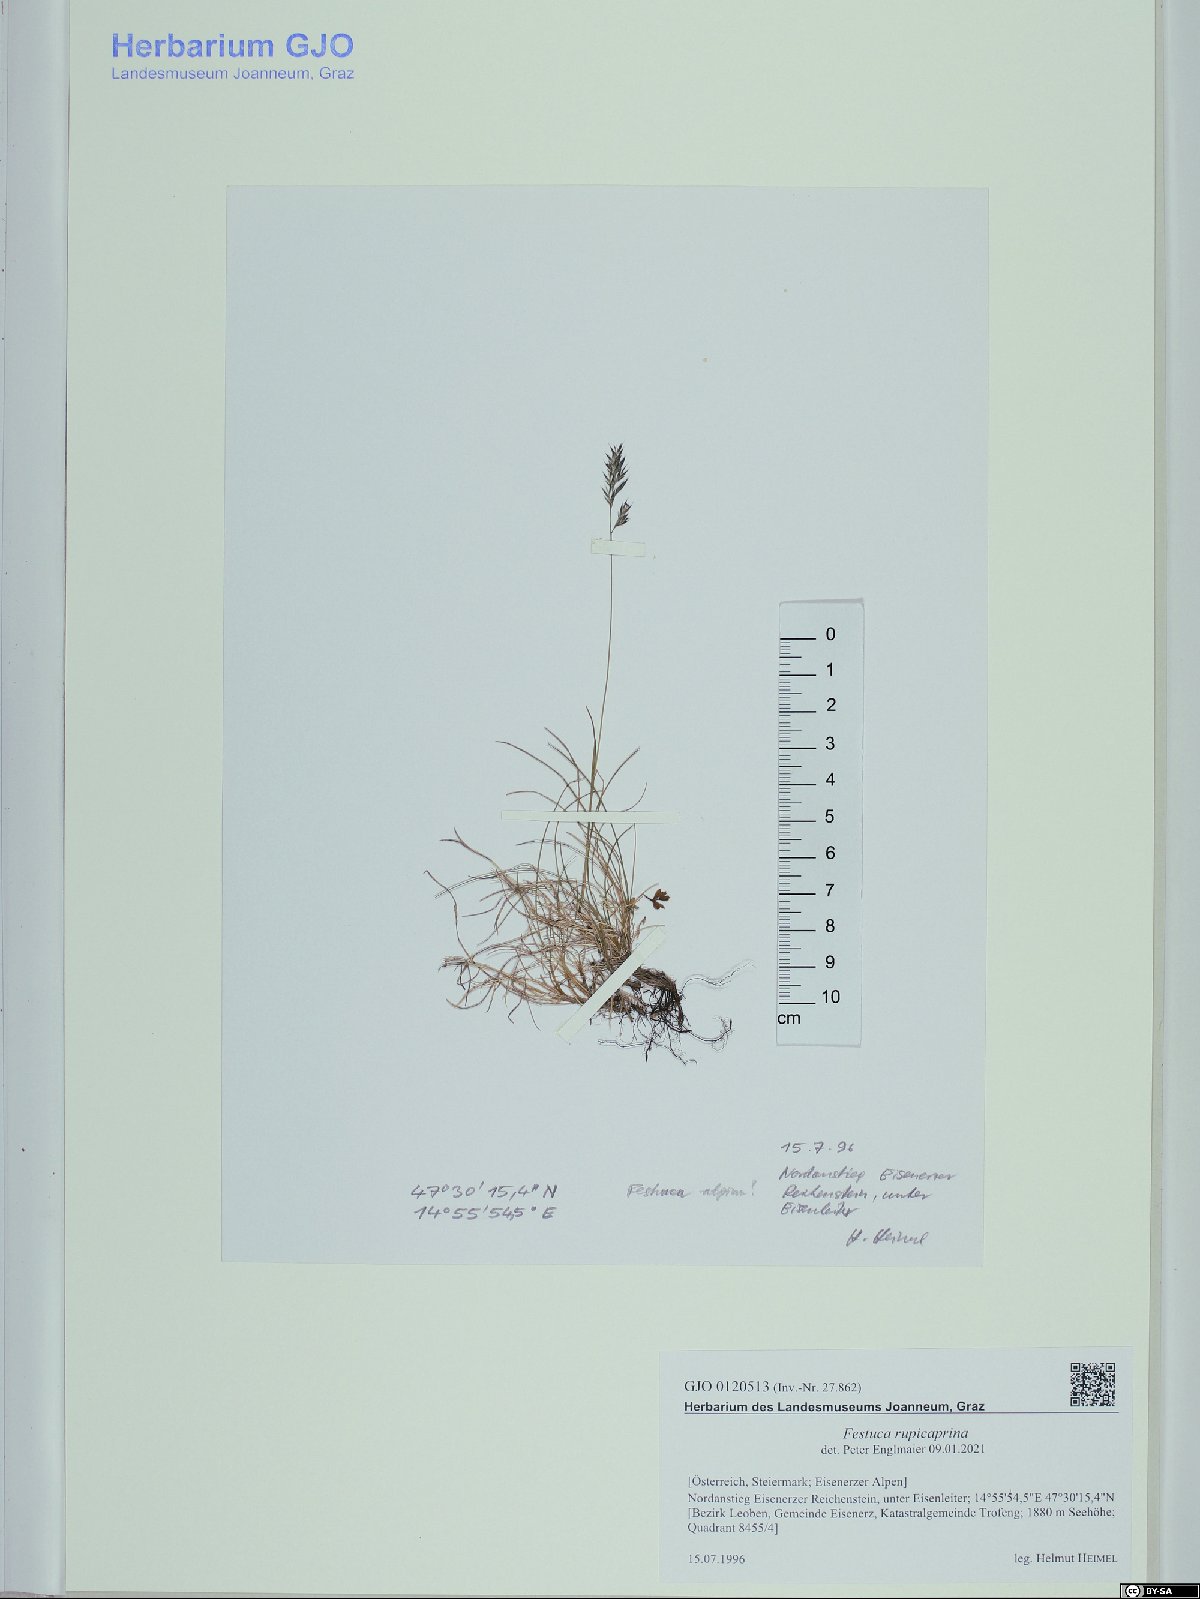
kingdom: Plantae
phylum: Tracheophyta
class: Liliopsida
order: Poales
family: Poaceae
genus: Festuca
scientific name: Festuca rupicaprina
